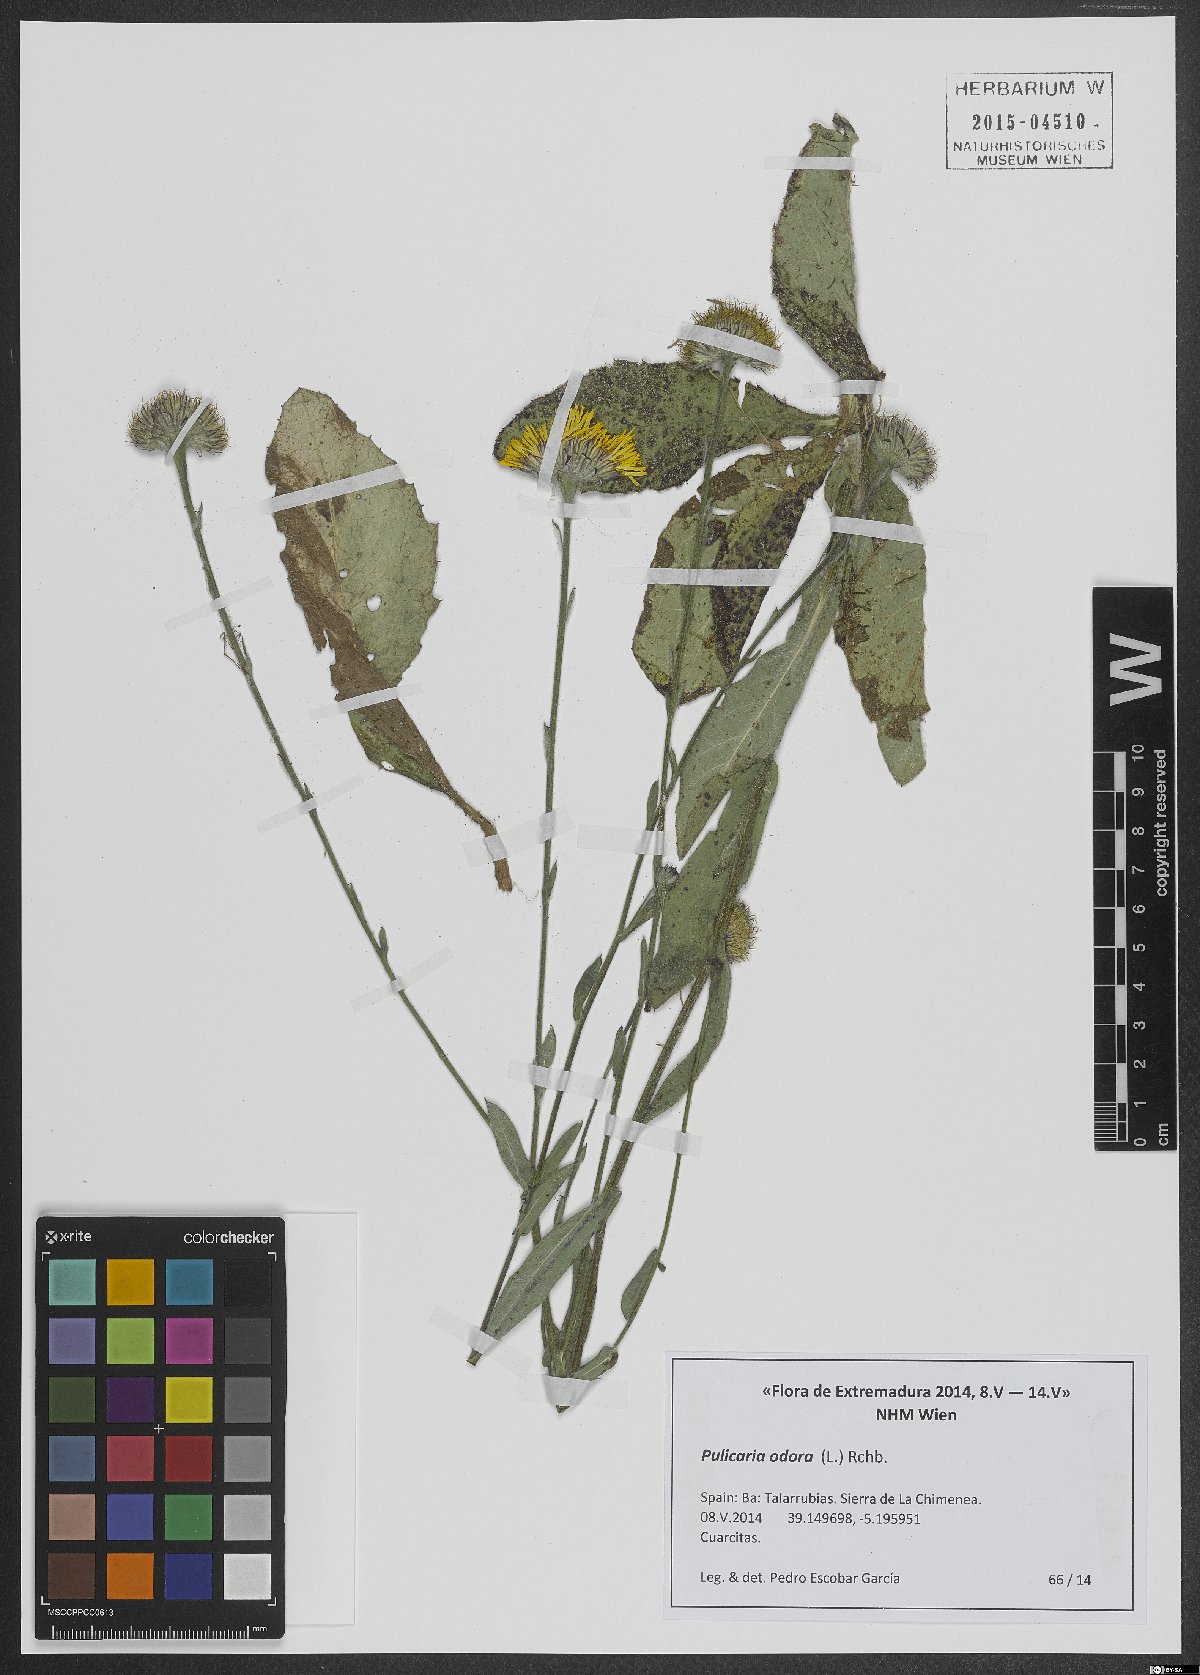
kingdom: Plantae
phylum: Tracheophyta
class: Magnoliopsida
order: Asterales
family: Asteraceae
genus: Pulicaria
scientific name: Pulicaria odora
